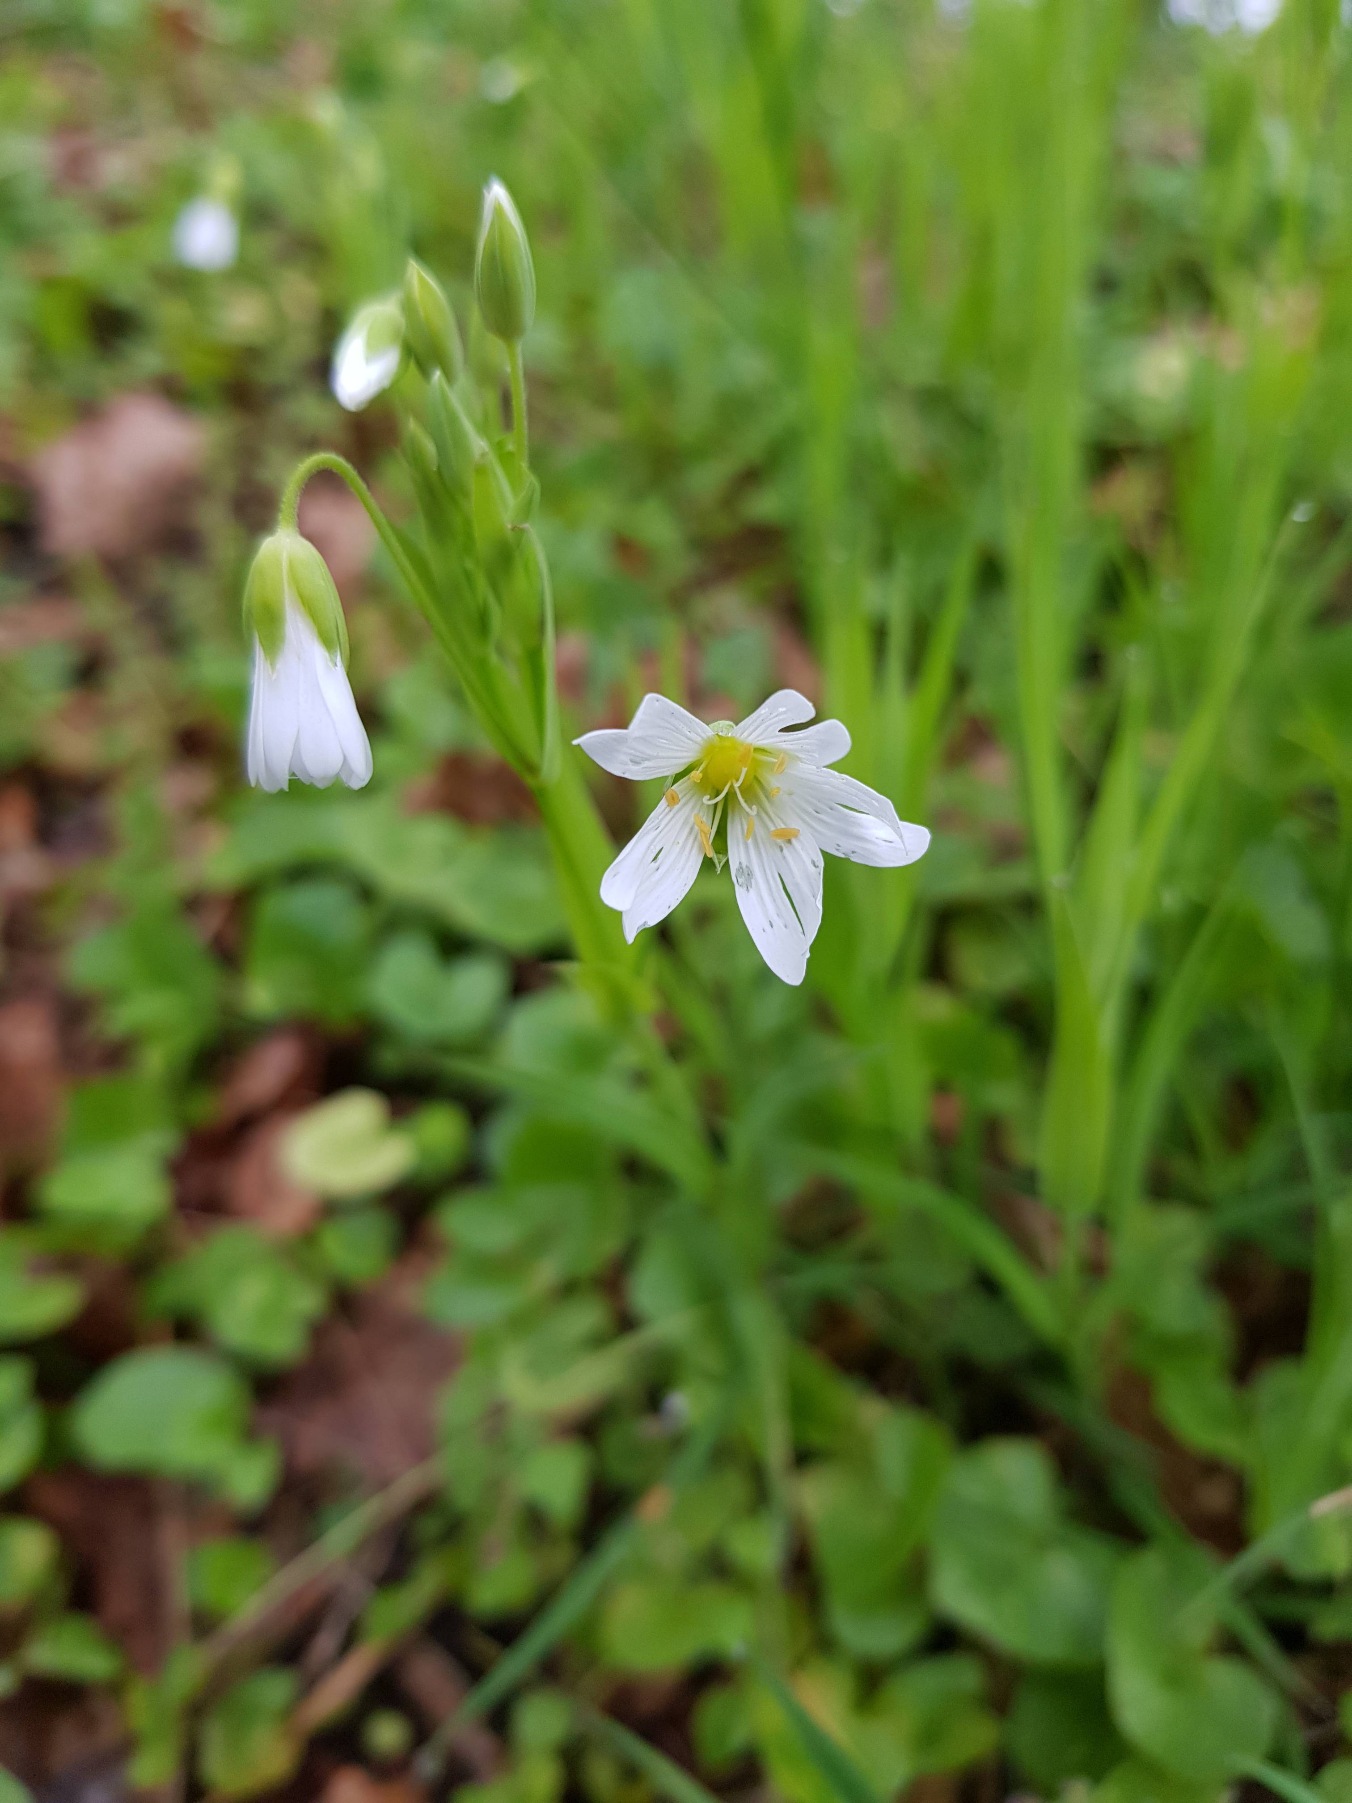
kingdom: Plantae
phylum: Tracheophyta
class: Magnoliopsida
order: Caryophyllales
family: Caryophyllaceae
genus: Rabelera
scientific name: Rabelera holostea
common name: Stor fladstjerne
